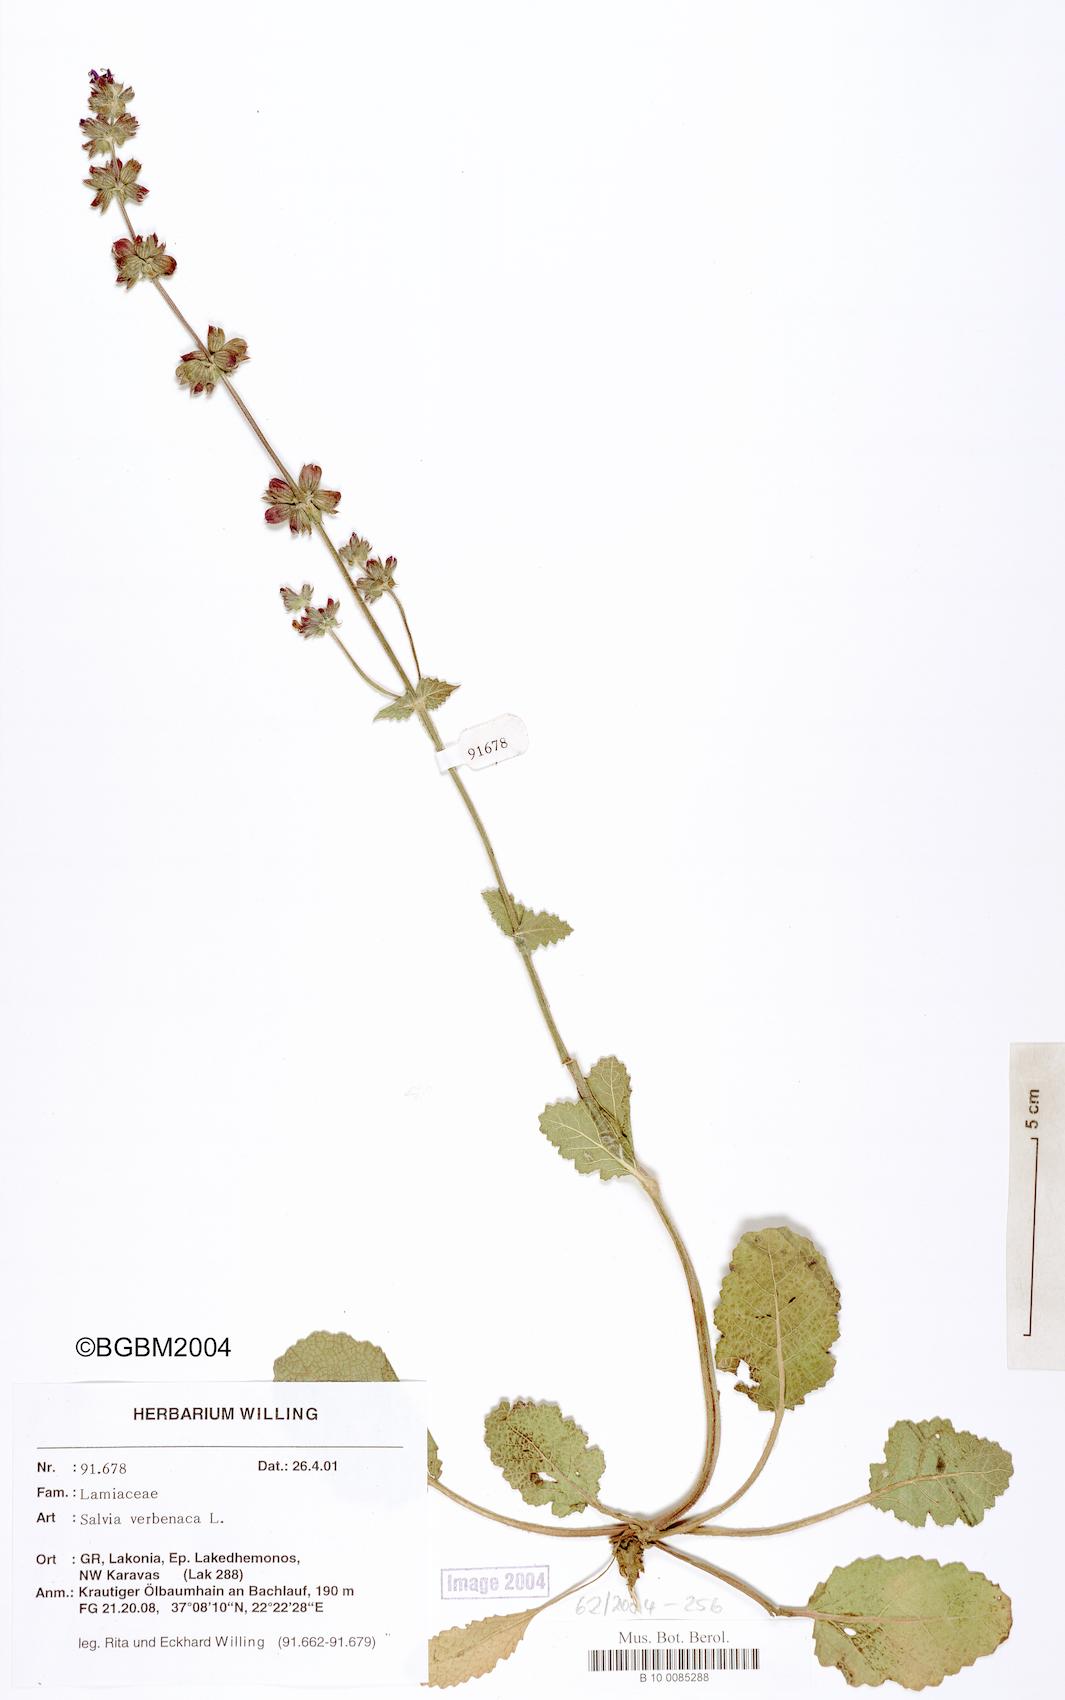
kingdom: Plantae
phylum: Tracheophyta
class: Magnoliopsida
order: Lamiales
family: Lamiaceae
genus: Salvia
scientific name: Salvia verbenaca
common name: Wild clary
